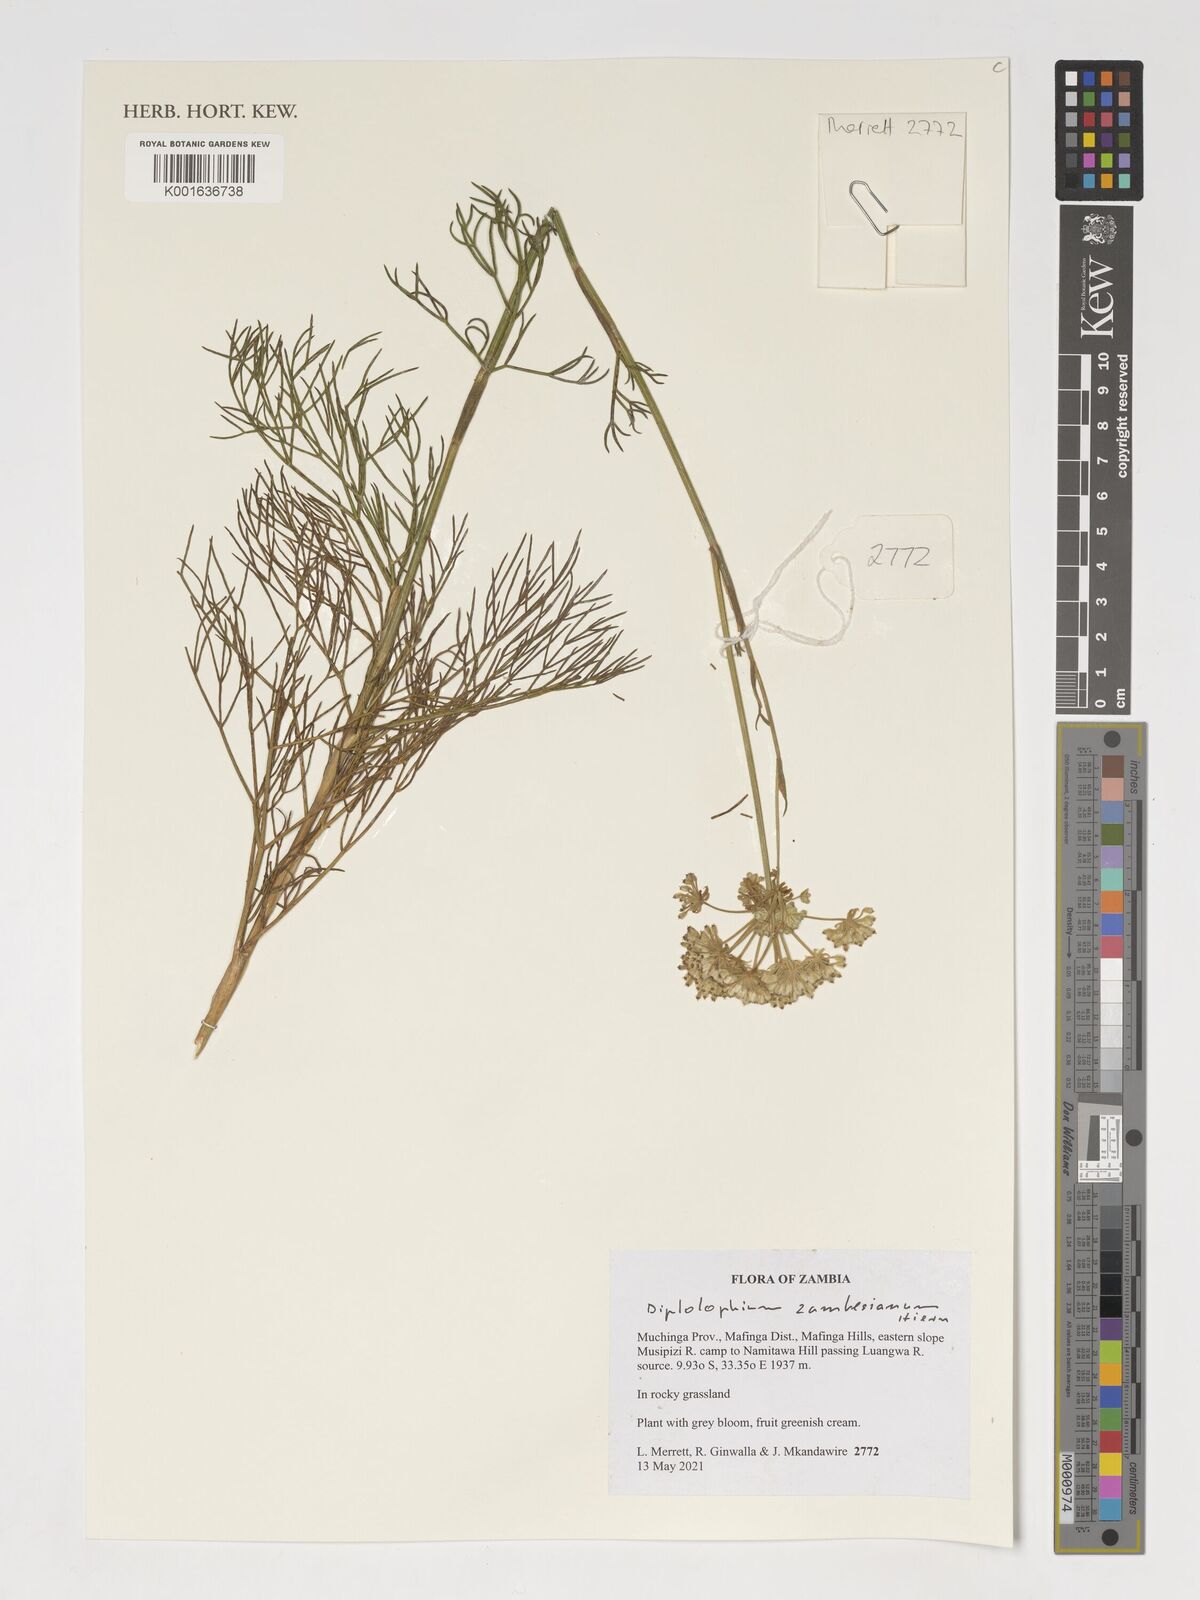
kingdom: Plantae
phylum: Tracheophyta
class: Magnoliopsida
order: Apiales
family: Apiaceae
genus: Diplolophium
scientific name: Diplolophium zambesianum
